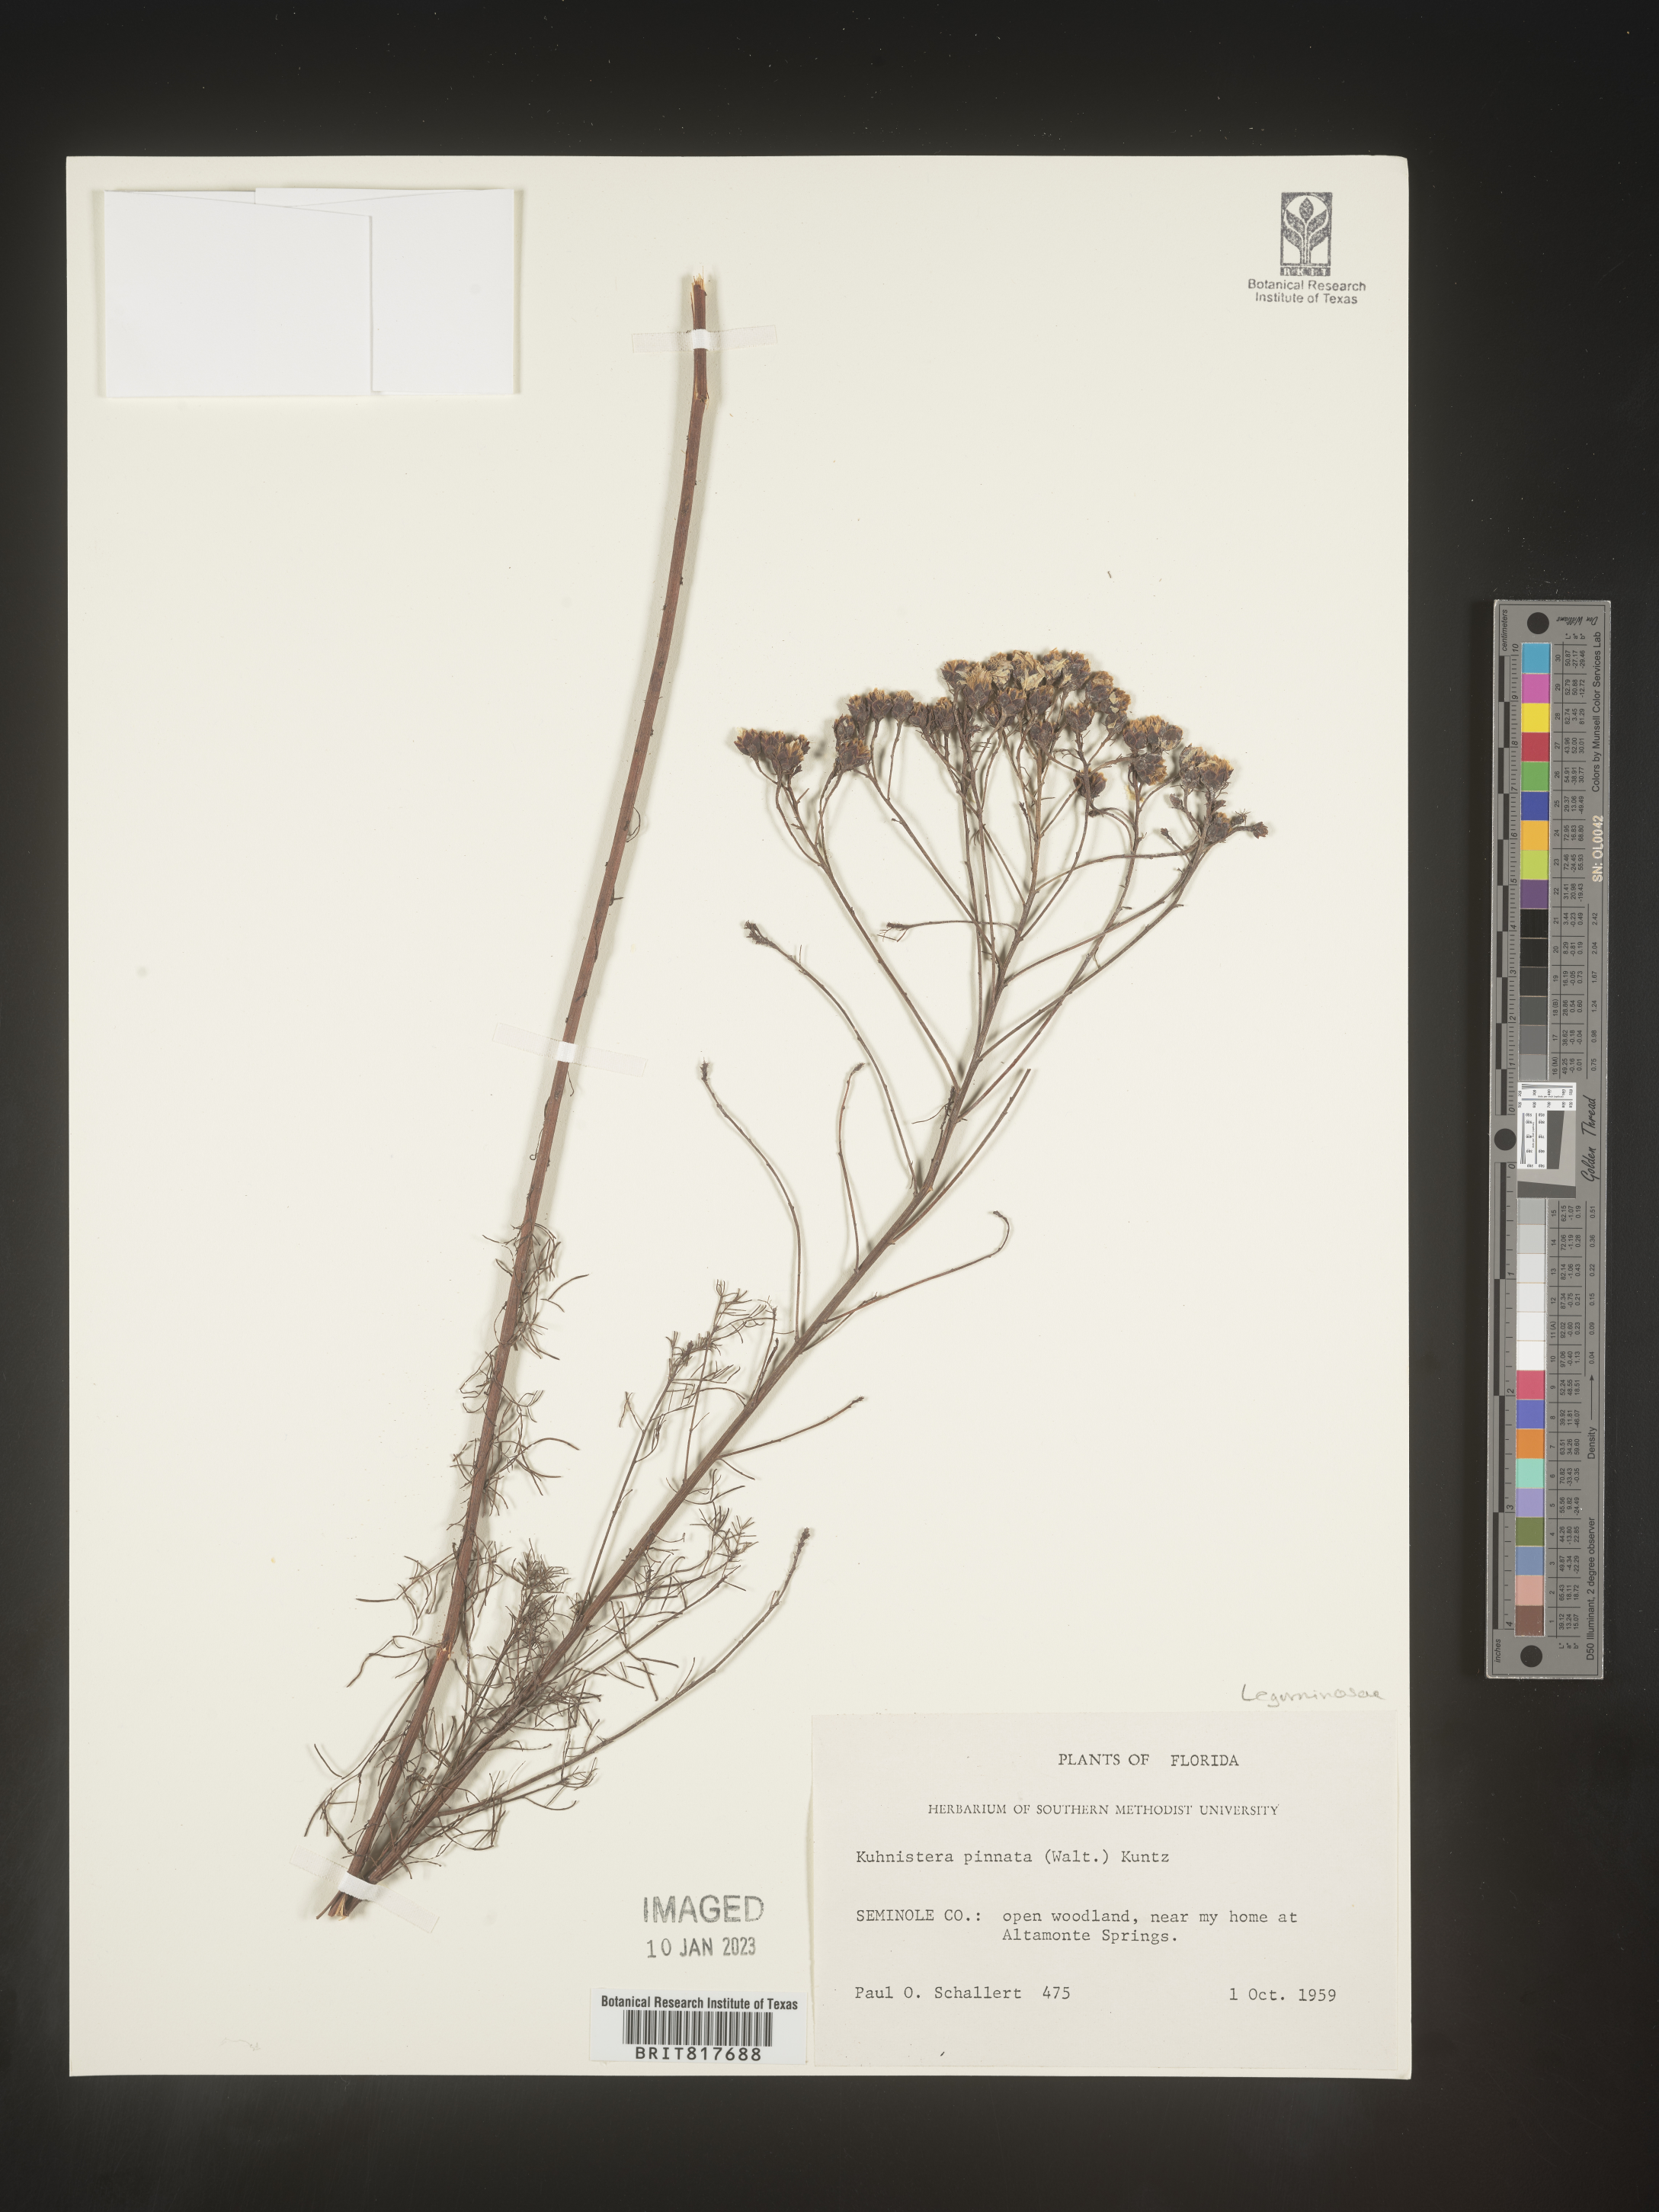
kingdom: Plantae
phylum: Tracheophyta
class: Magnoliopsida
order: Fabales
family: Fabaceae
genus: Dalea
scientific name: Dalea pinnata
